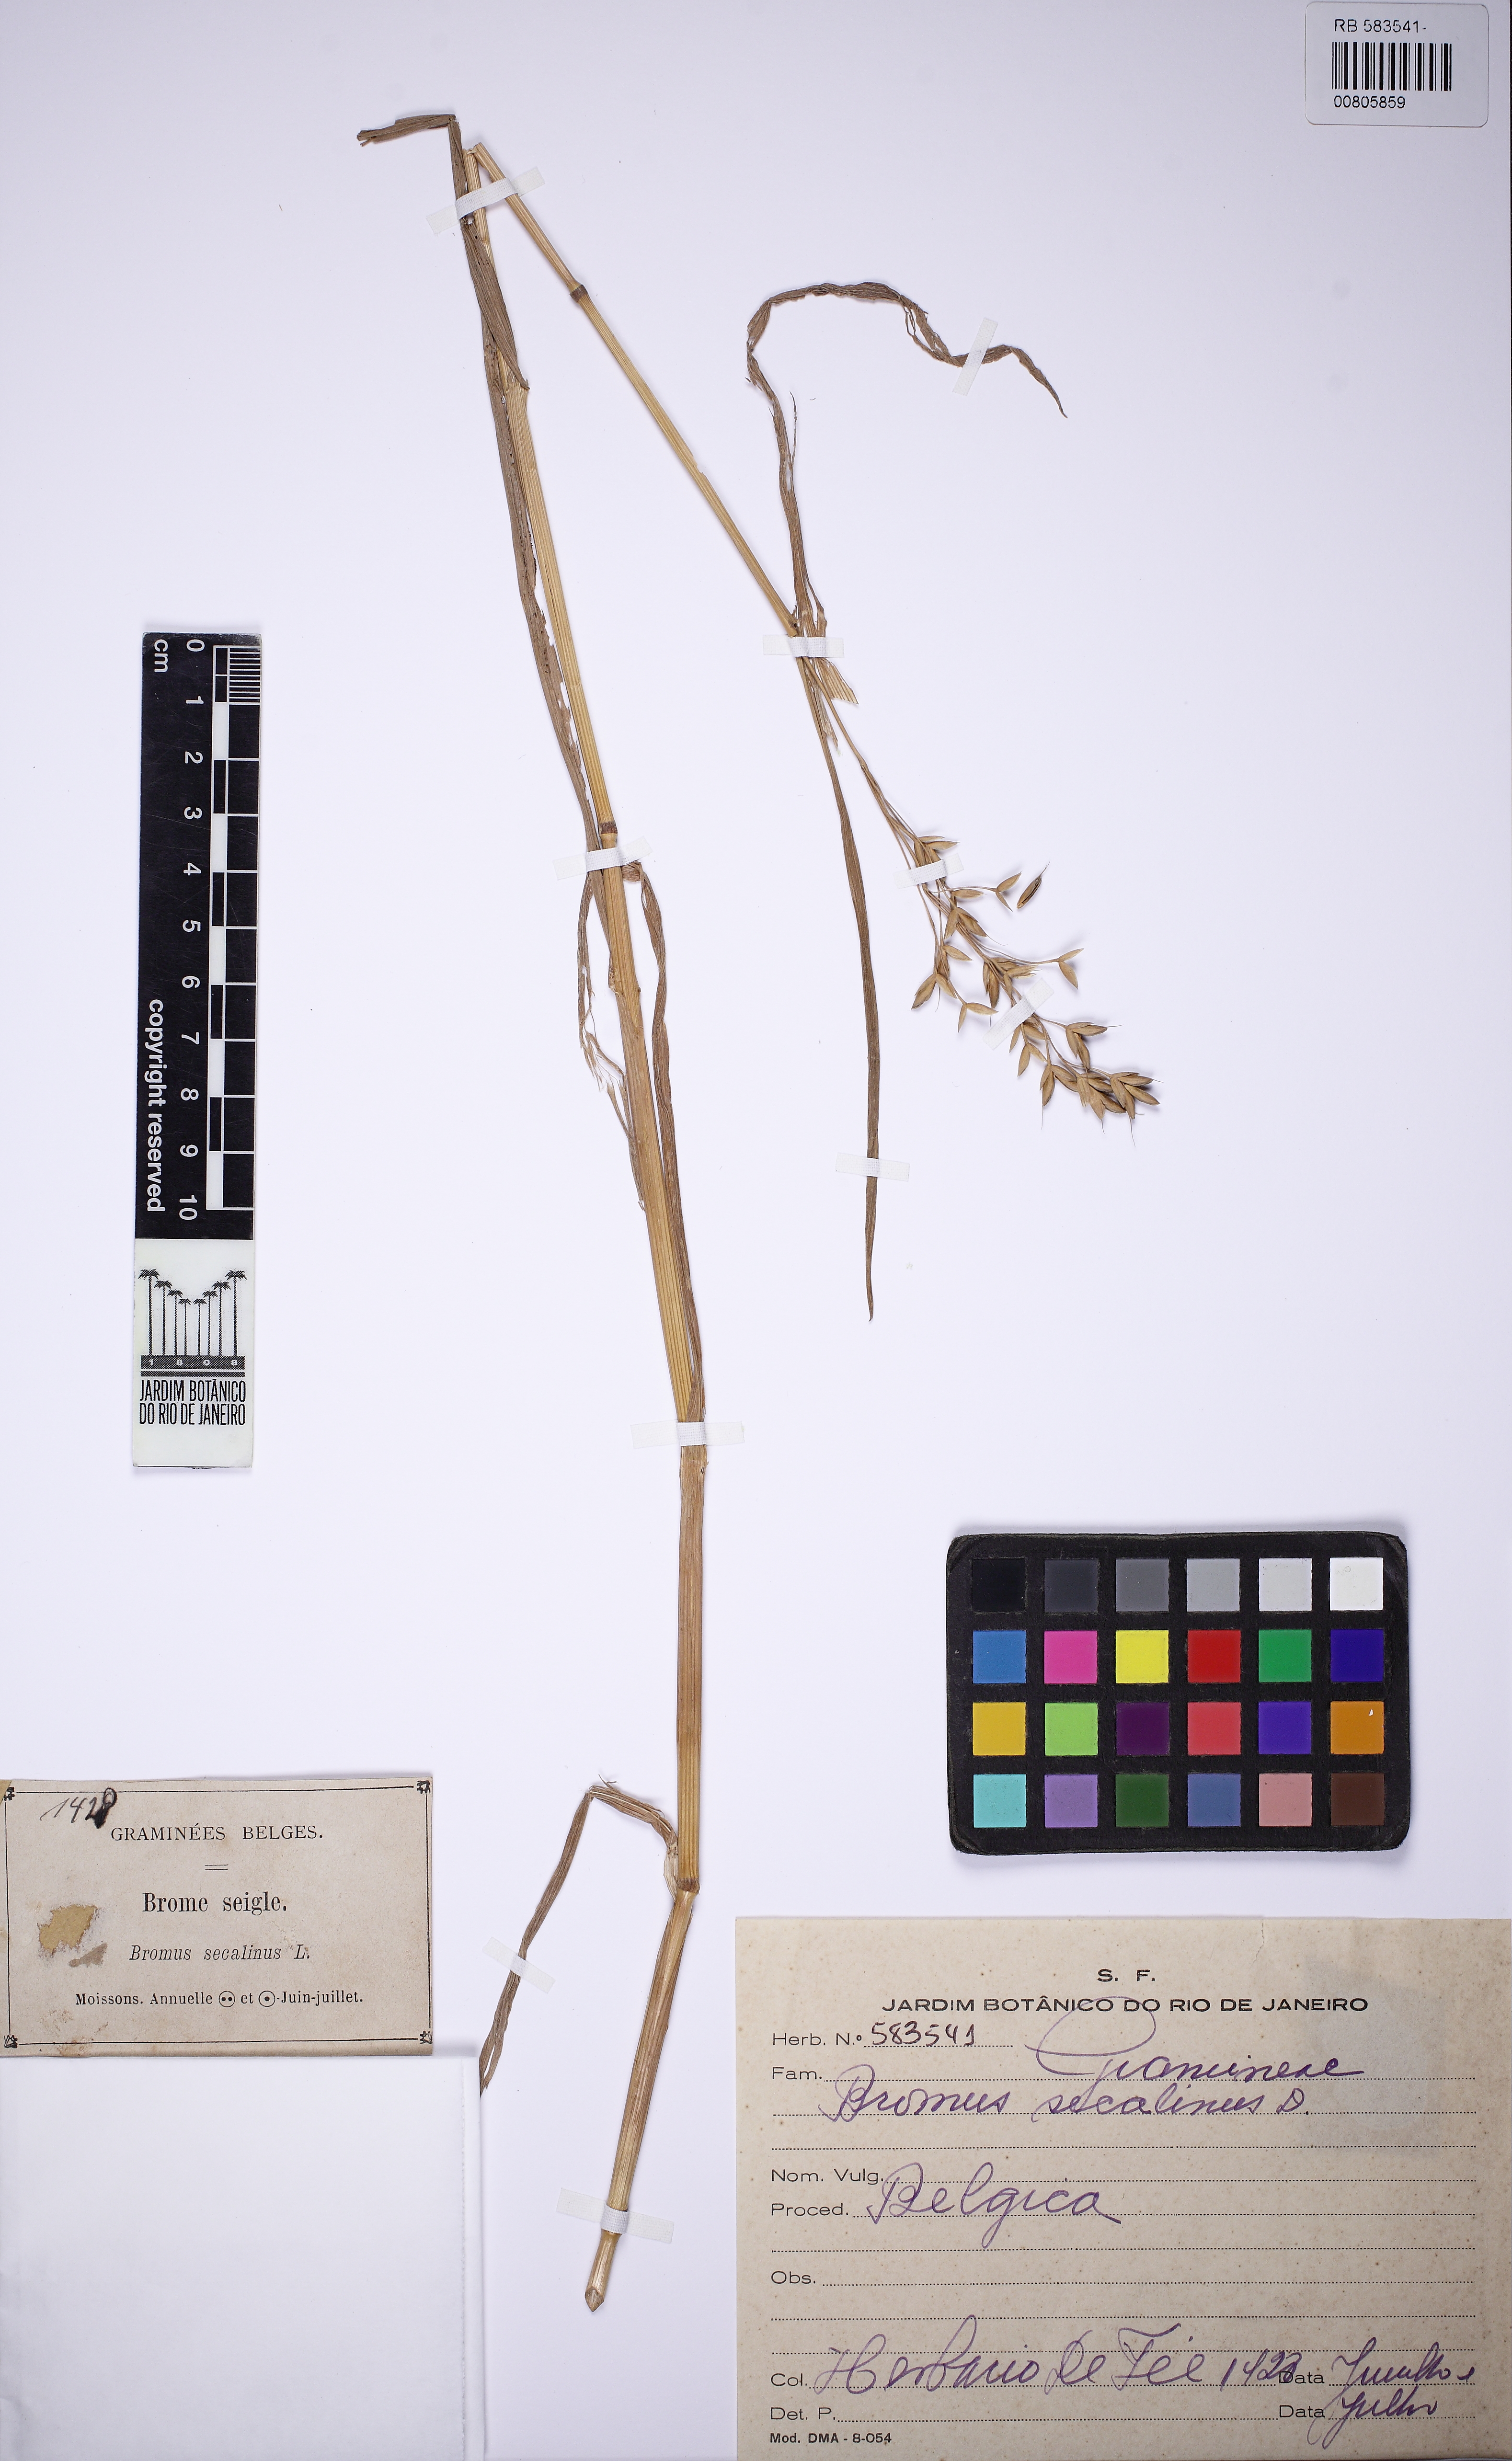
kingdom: Plantae
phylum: Tracheophyta
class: Liliopsida
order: Poales
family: Poaceae
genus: Bromus
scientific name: Bromus secalinus
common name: Rye brome
